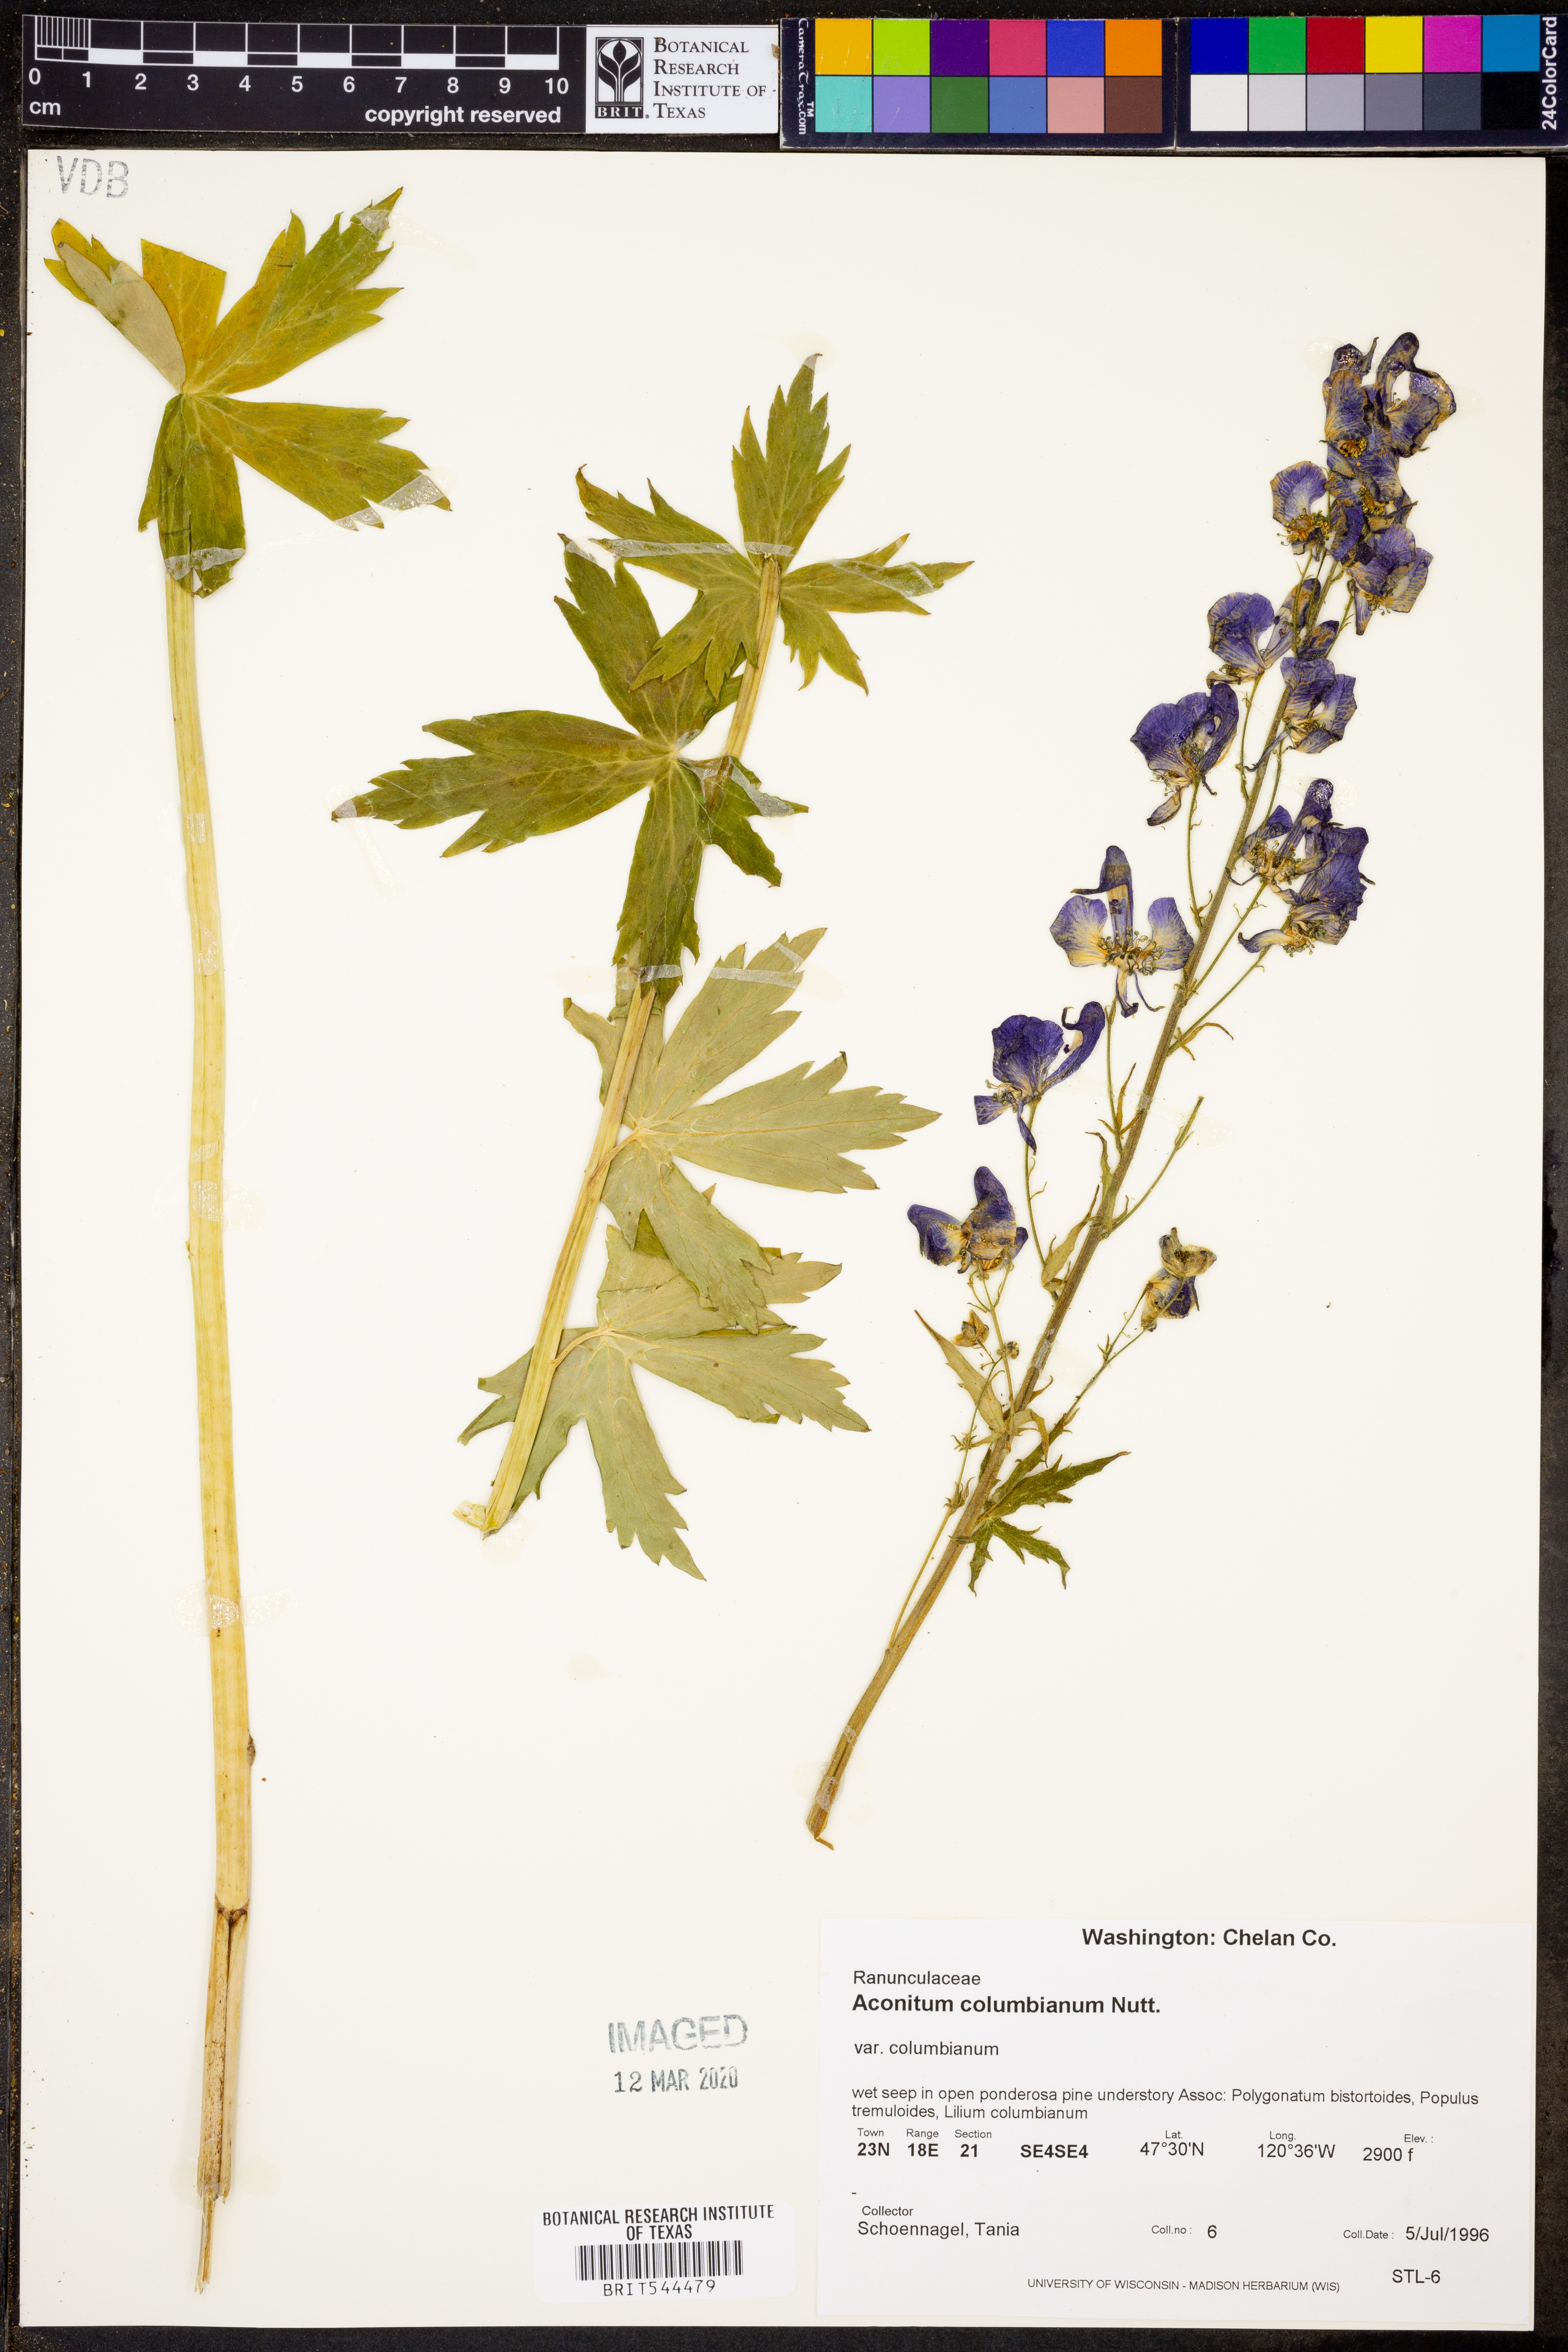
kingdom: Plantae
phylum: Tracheophyta
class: Magnoliopsida
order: Ranunculales
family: Ranunculaceae
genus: Aconitum
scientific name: Aconitum columbianum
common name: Columbia aconite
